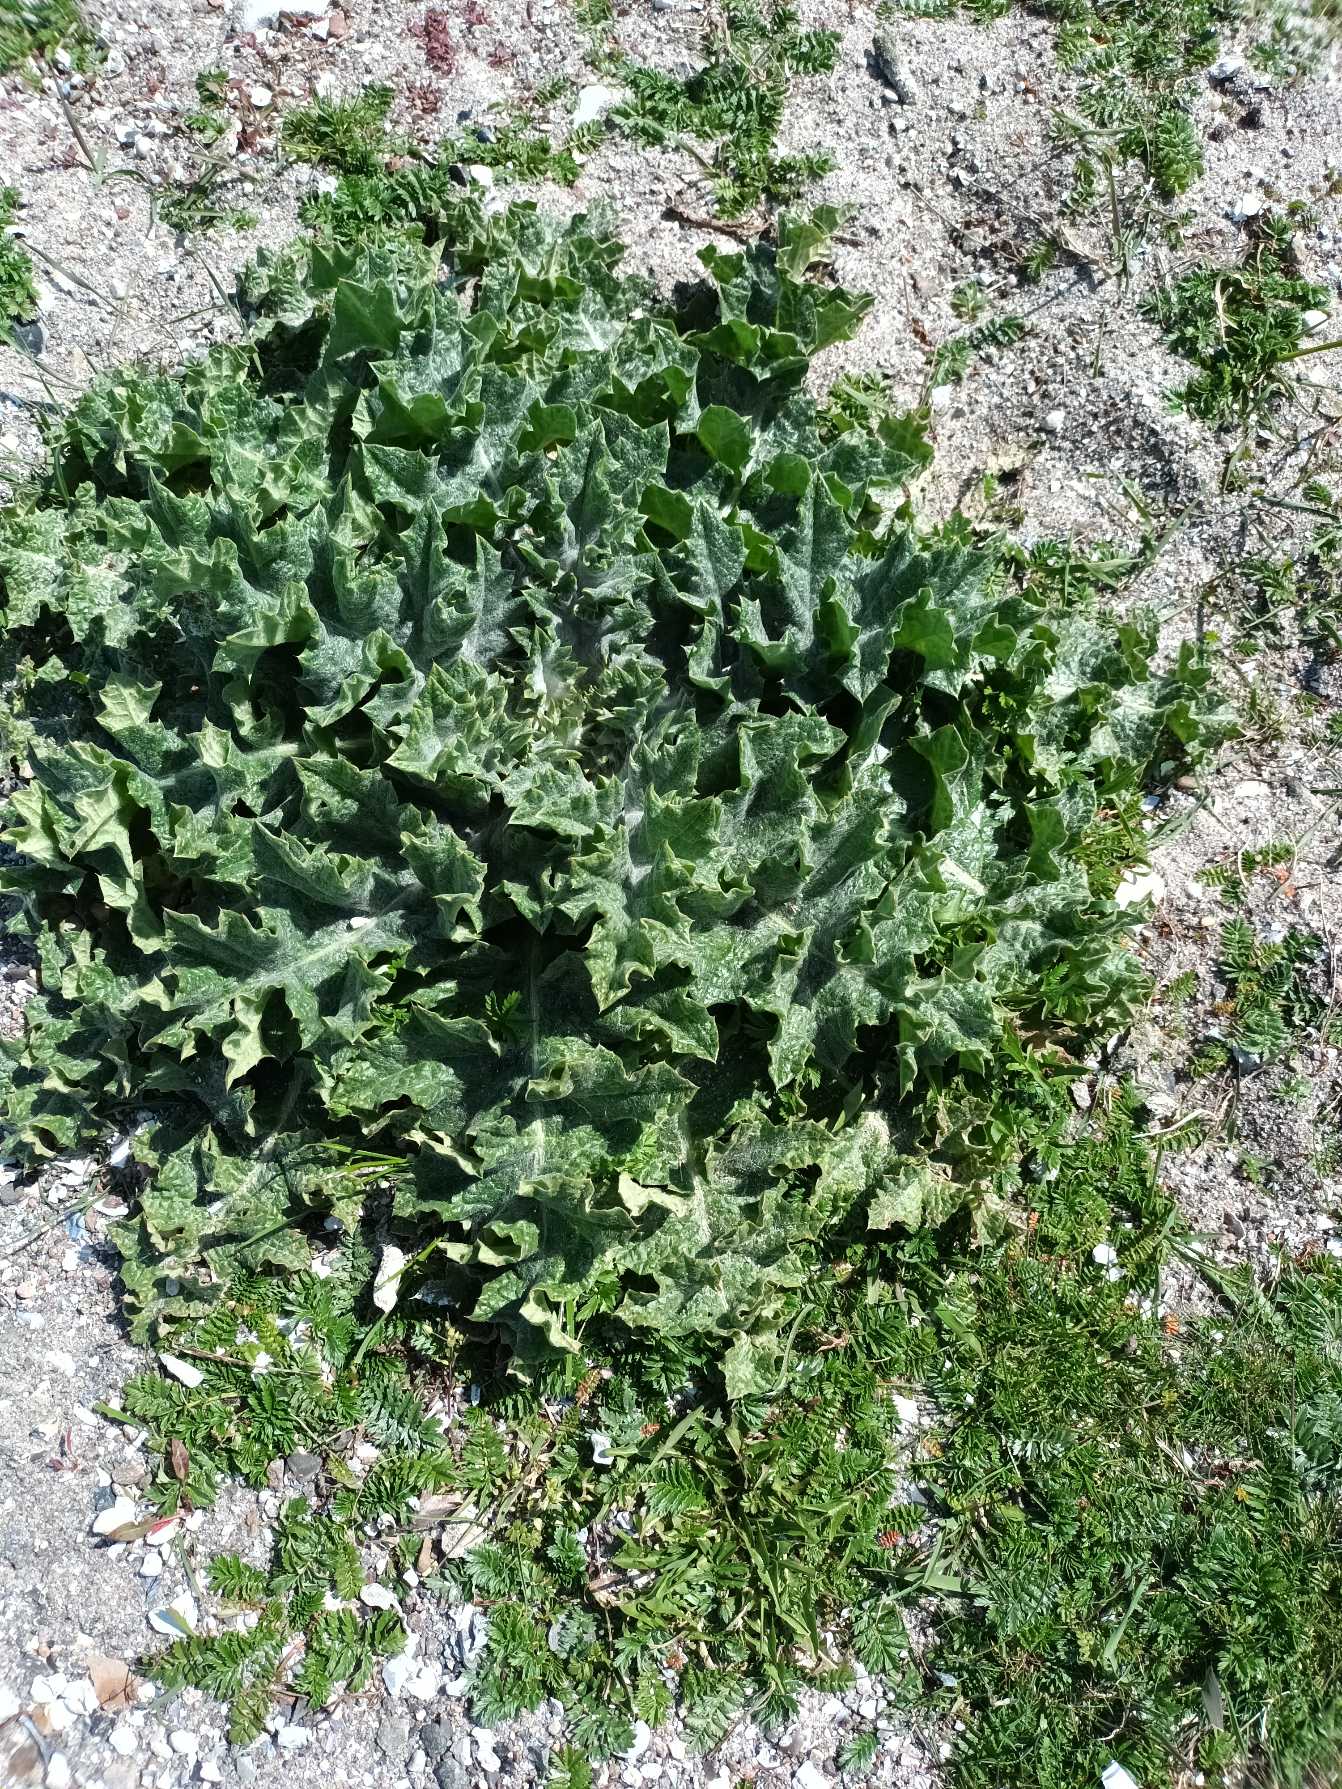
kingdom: Plantae
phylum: Tracheophyta
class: Magnoliopsida
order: Asterales
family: Asteraceae
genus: Onopordum
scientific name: Onopordum acanthium
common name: Æselfoder
